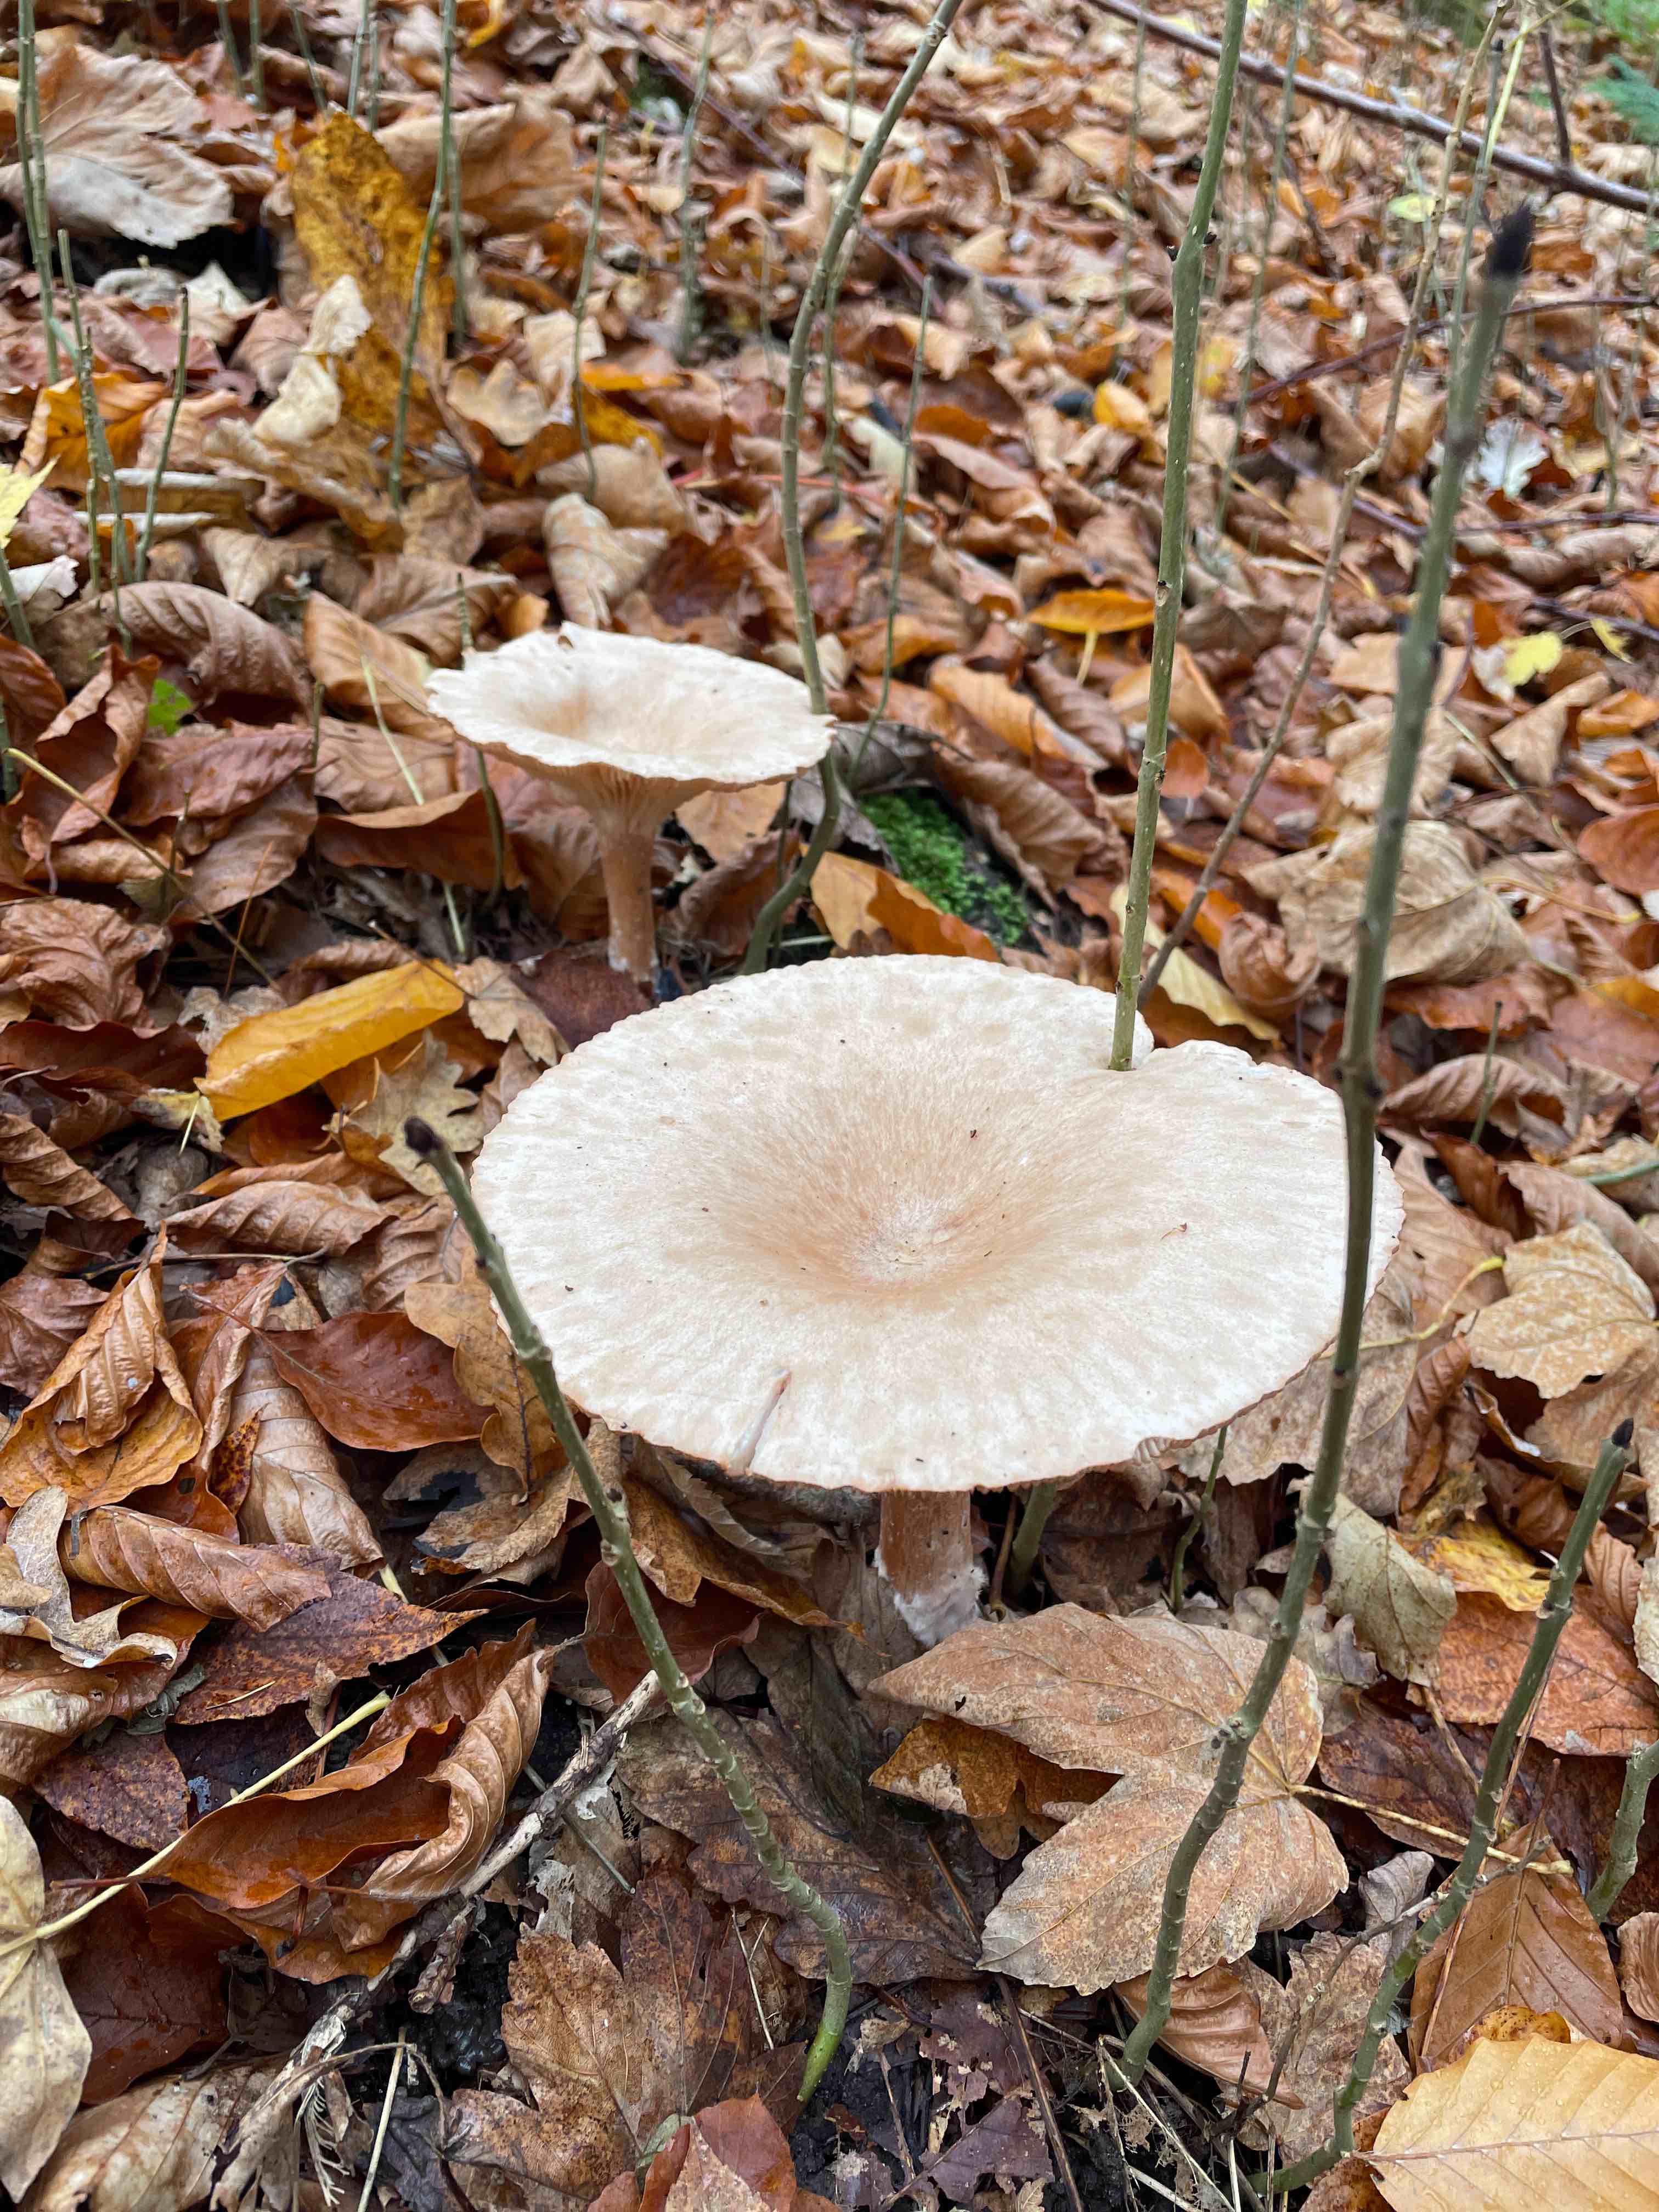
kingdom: Fungi
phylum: Basidiomycota
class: Agaricomycetes
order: Agaricales
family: Tricholomataceae
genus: Infundibulicybe
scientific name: Infundibulicybe geotropa
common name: stor tragthat
